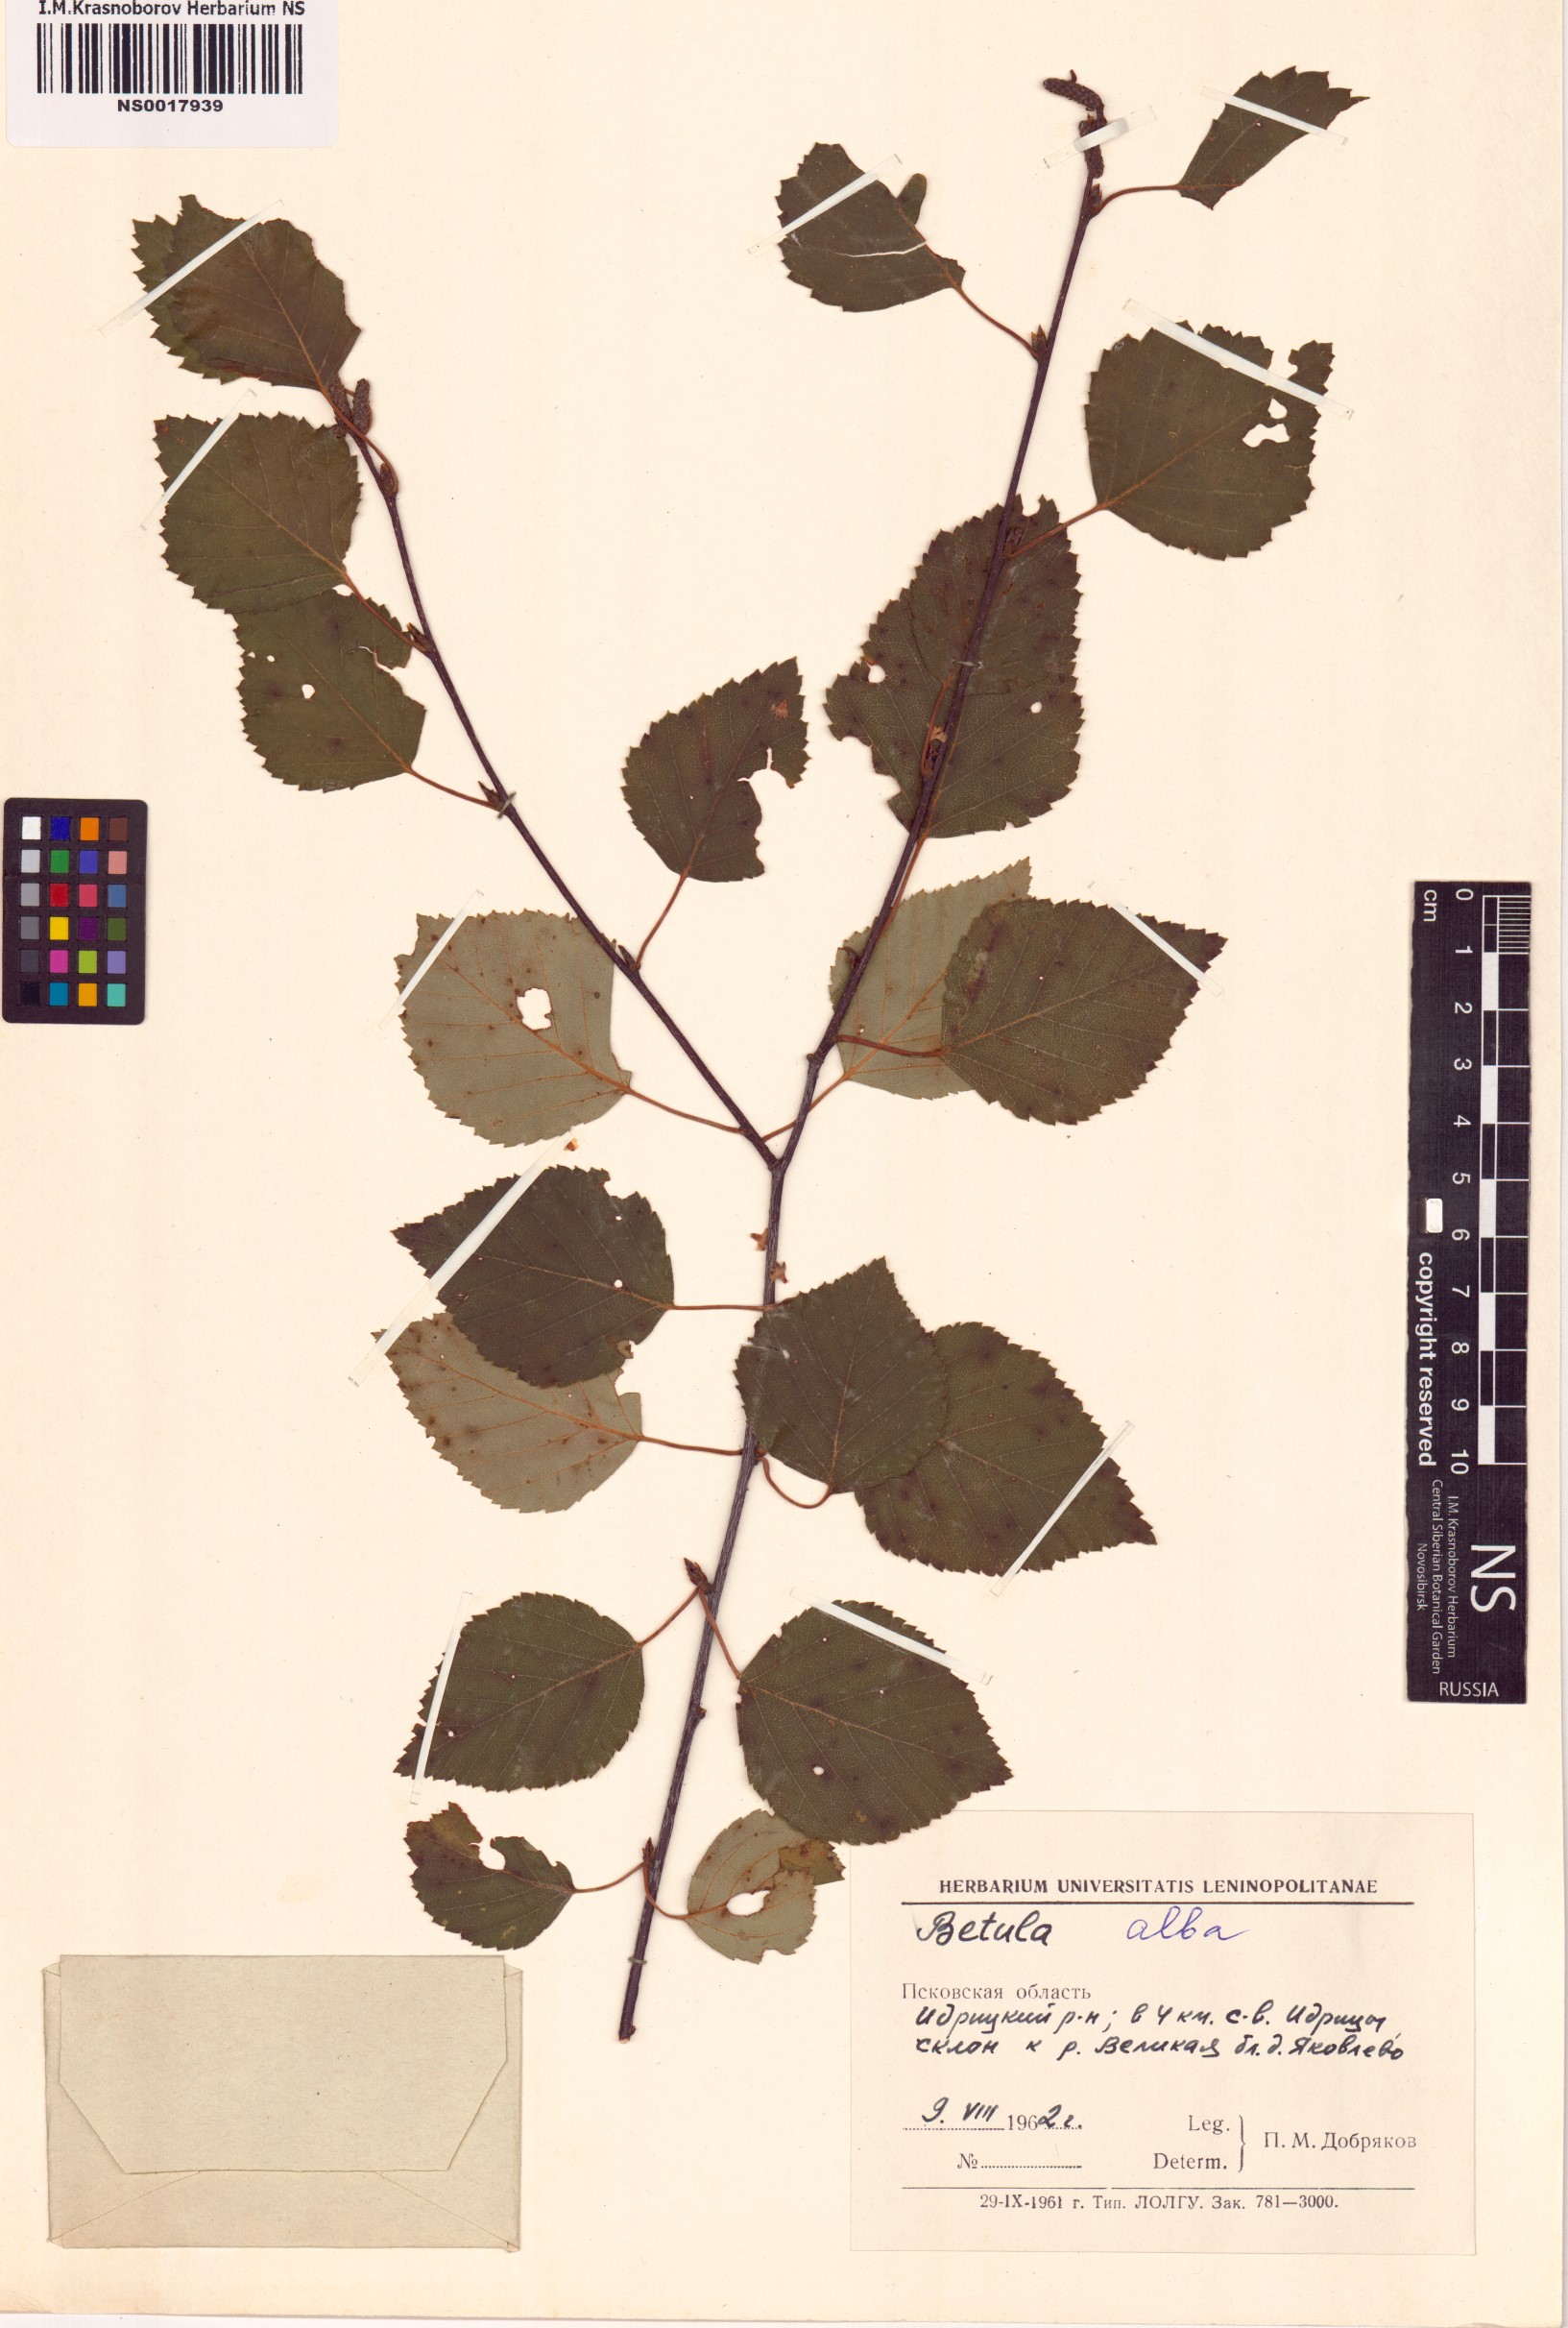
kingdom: Plantae
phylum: Tracheophyta
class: Magnoliopsida
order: Fagales
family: Betulaceae
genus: Betula
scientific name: Betula pubescens
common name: Downy birch
